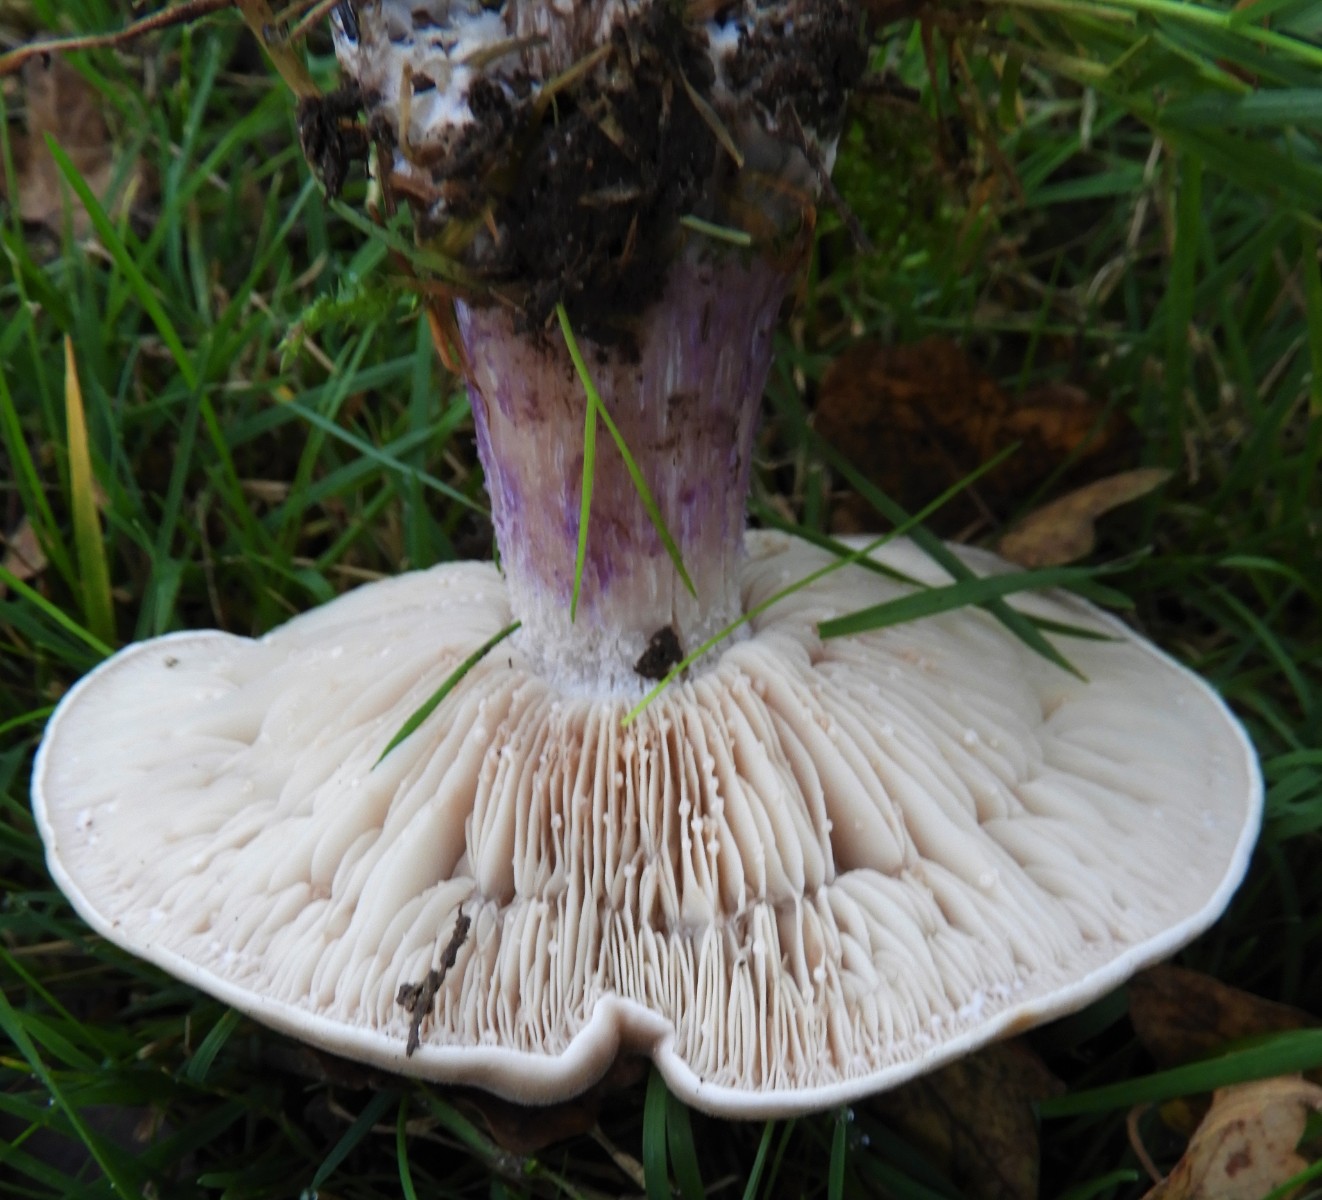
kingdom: Fungi
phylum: Basidiomycota
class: Agaricomycetes
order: Agaricales
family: Tricholomataceae
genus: Lepista
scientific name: Lepista personata
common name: bleg hekseringshat
